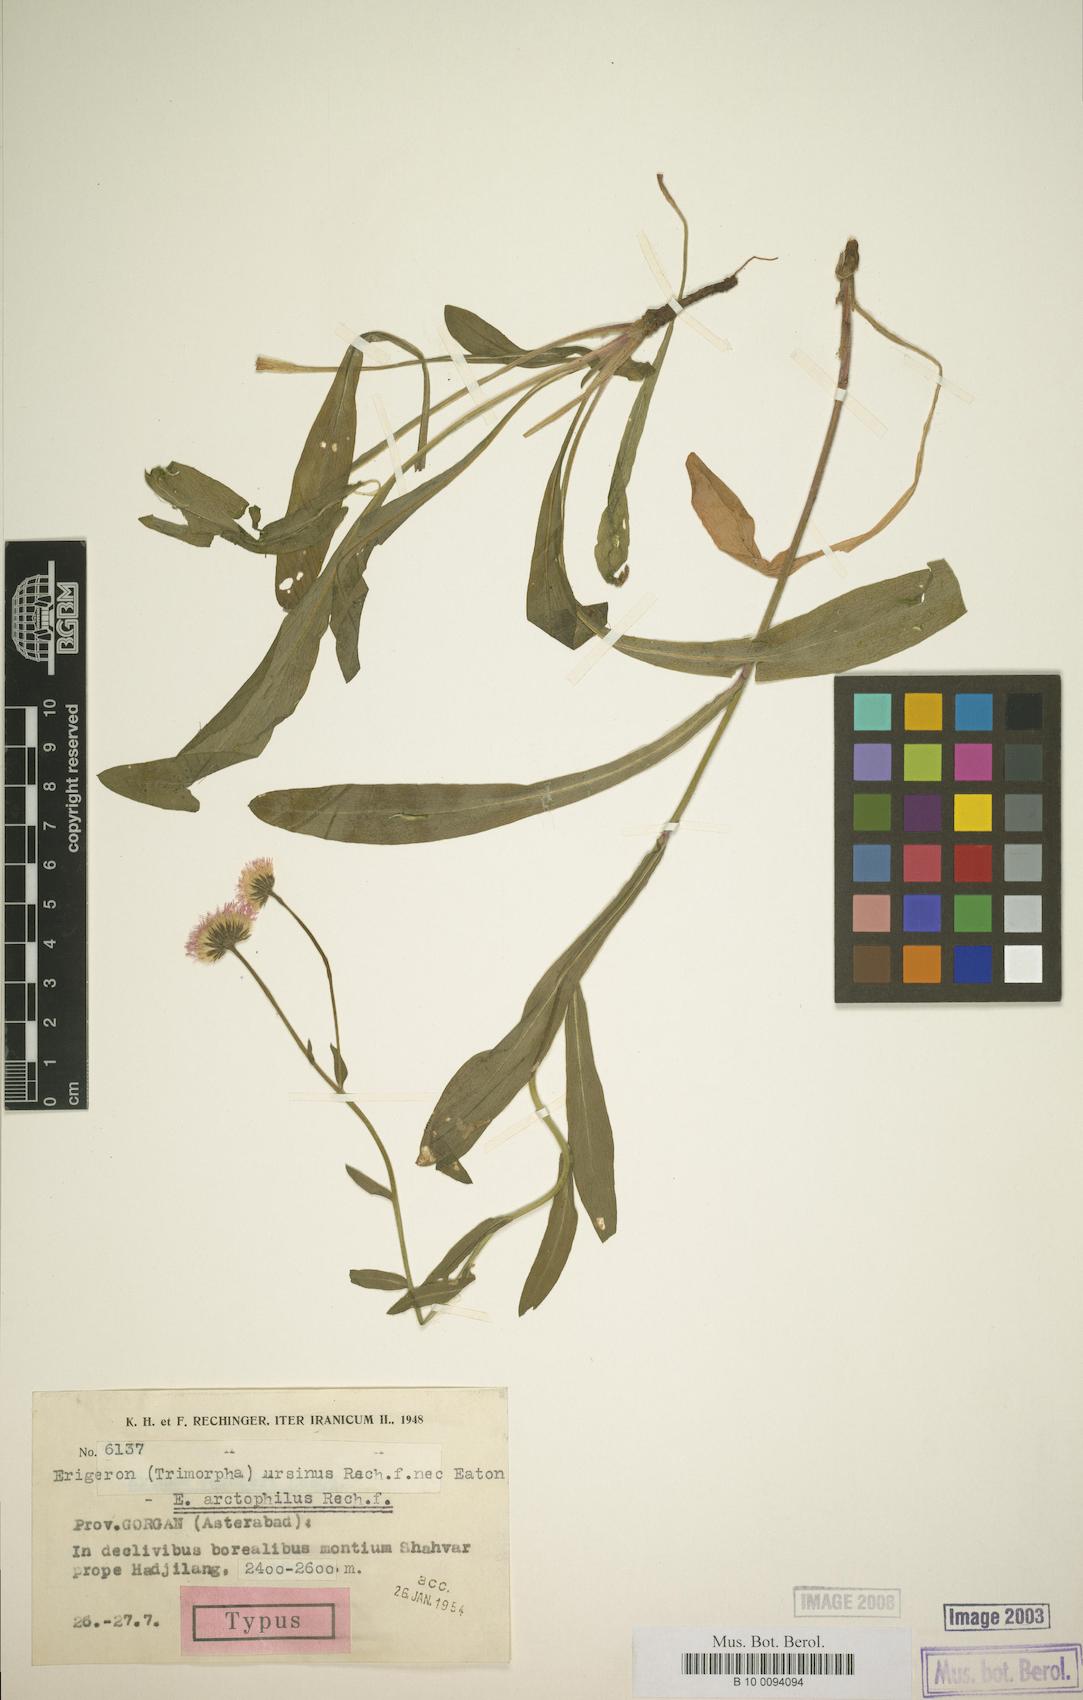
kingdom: Plantae
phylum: Tracheophyta
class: Magnoliopsida
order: Asterales
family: Asteraceae
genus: Erigeron
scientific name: Erigeron acris
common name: Blue fleabane
